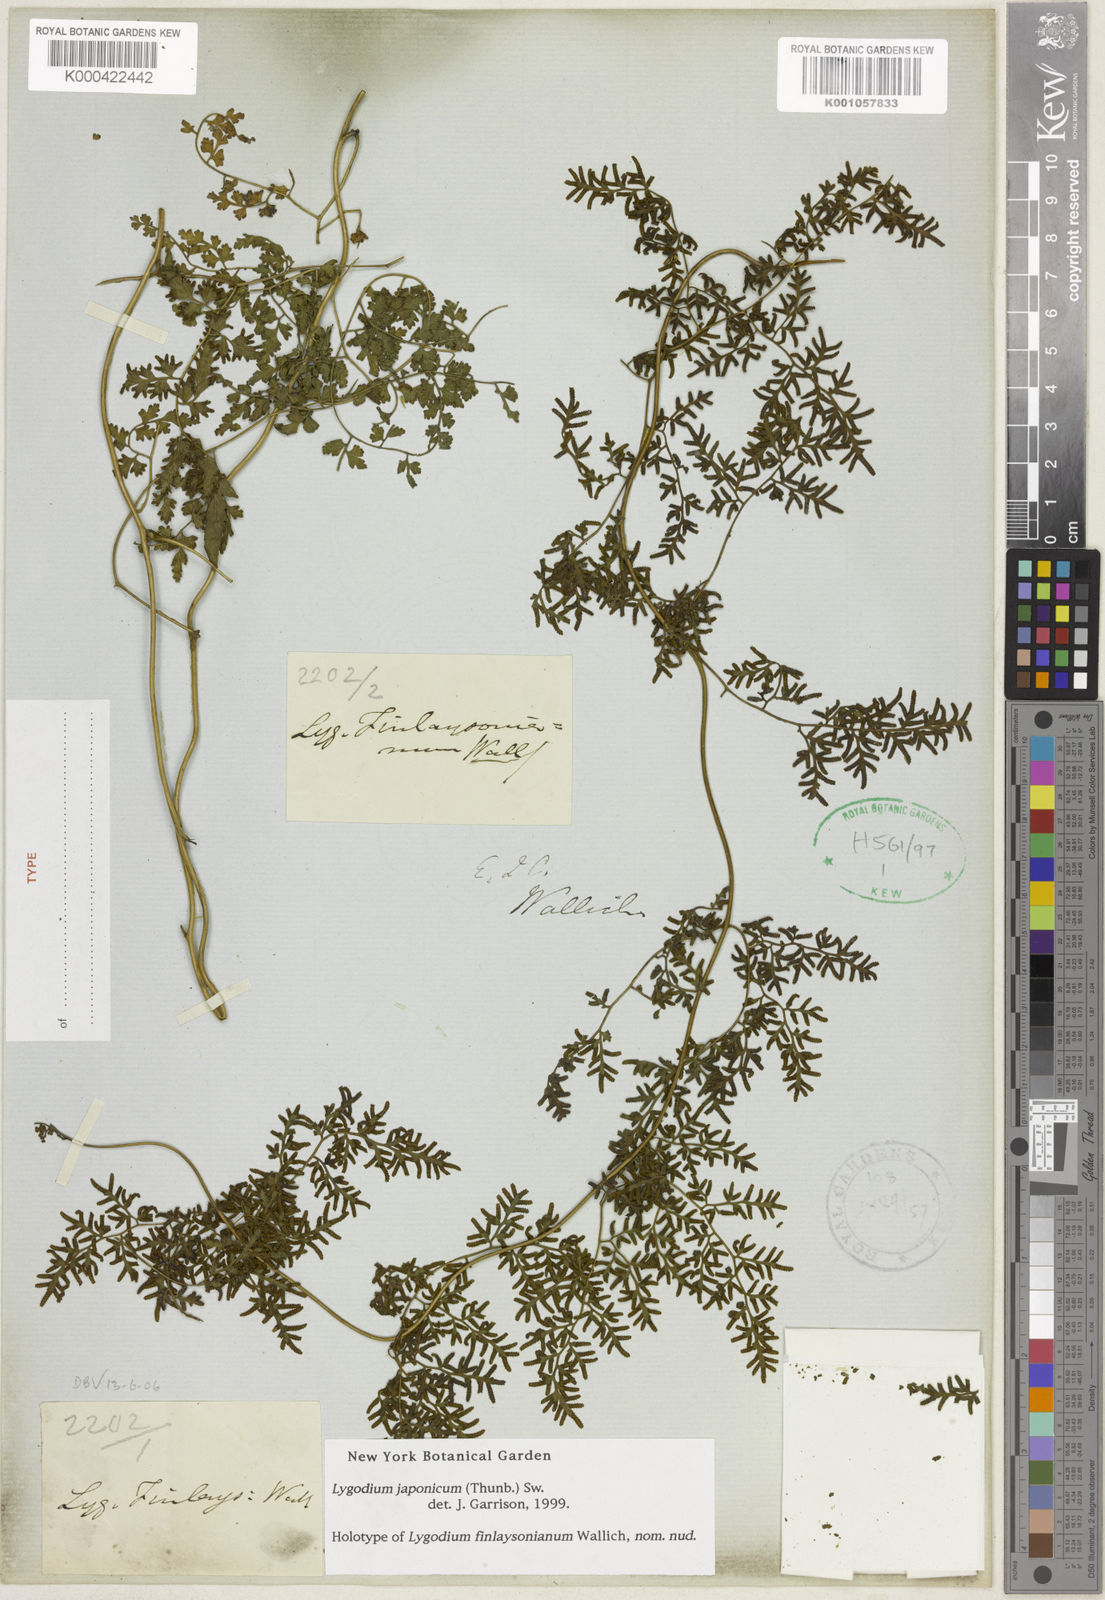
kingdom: Plantae
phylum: Tracheophyta
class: Polypodiopsida
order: Schizaeales
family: Lygodiaceae
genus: Lygodium
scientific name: Lygodium japonicum
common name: Japanese climbing fern
